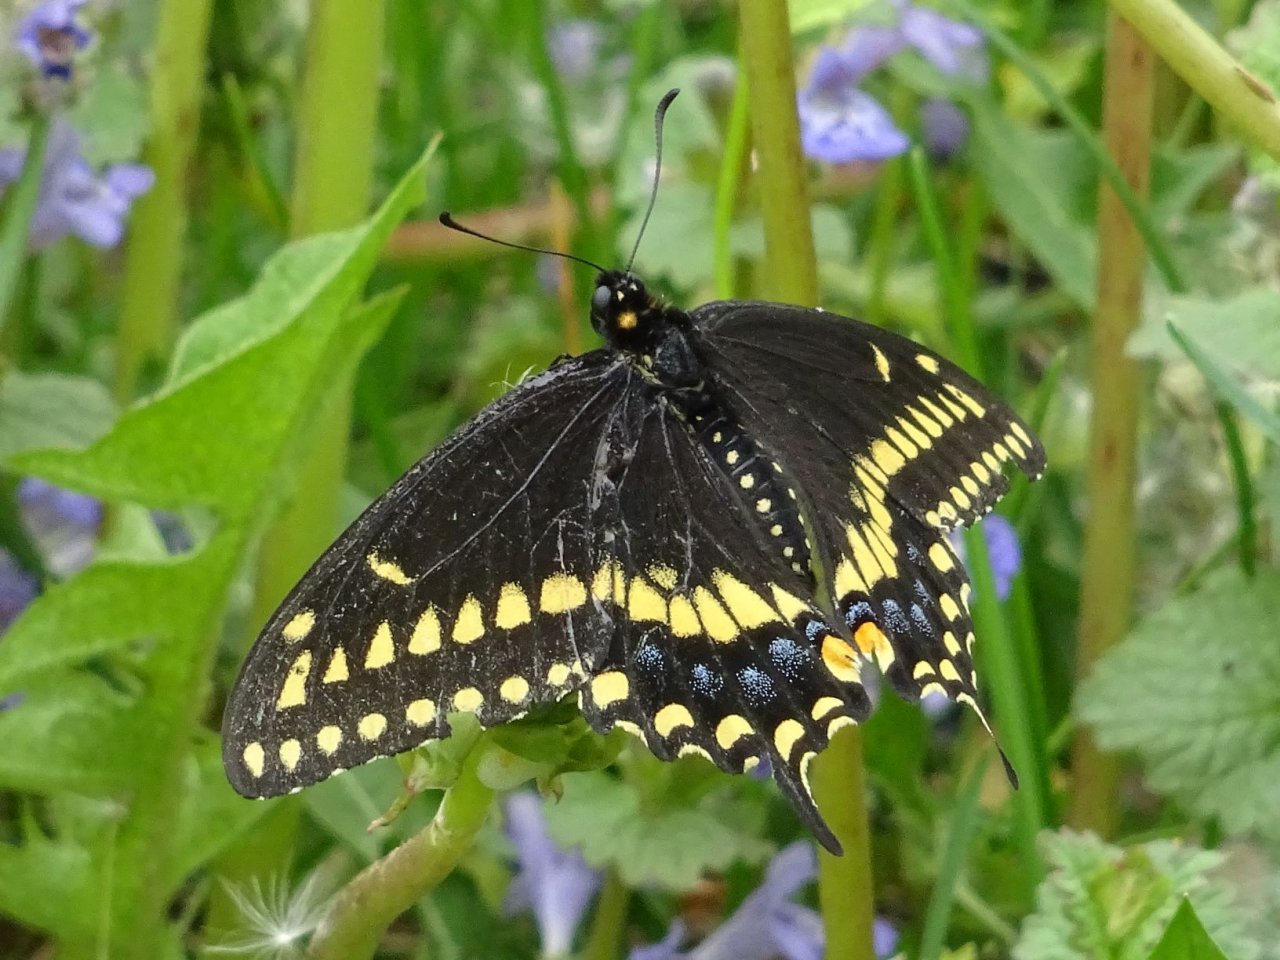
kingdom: Animalia
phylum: Arthropoda
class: Insecta
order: Lepidoptera
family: Papilionidae
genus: Papilio
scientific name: Papilio polyxenes
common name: Black Swallowtail
